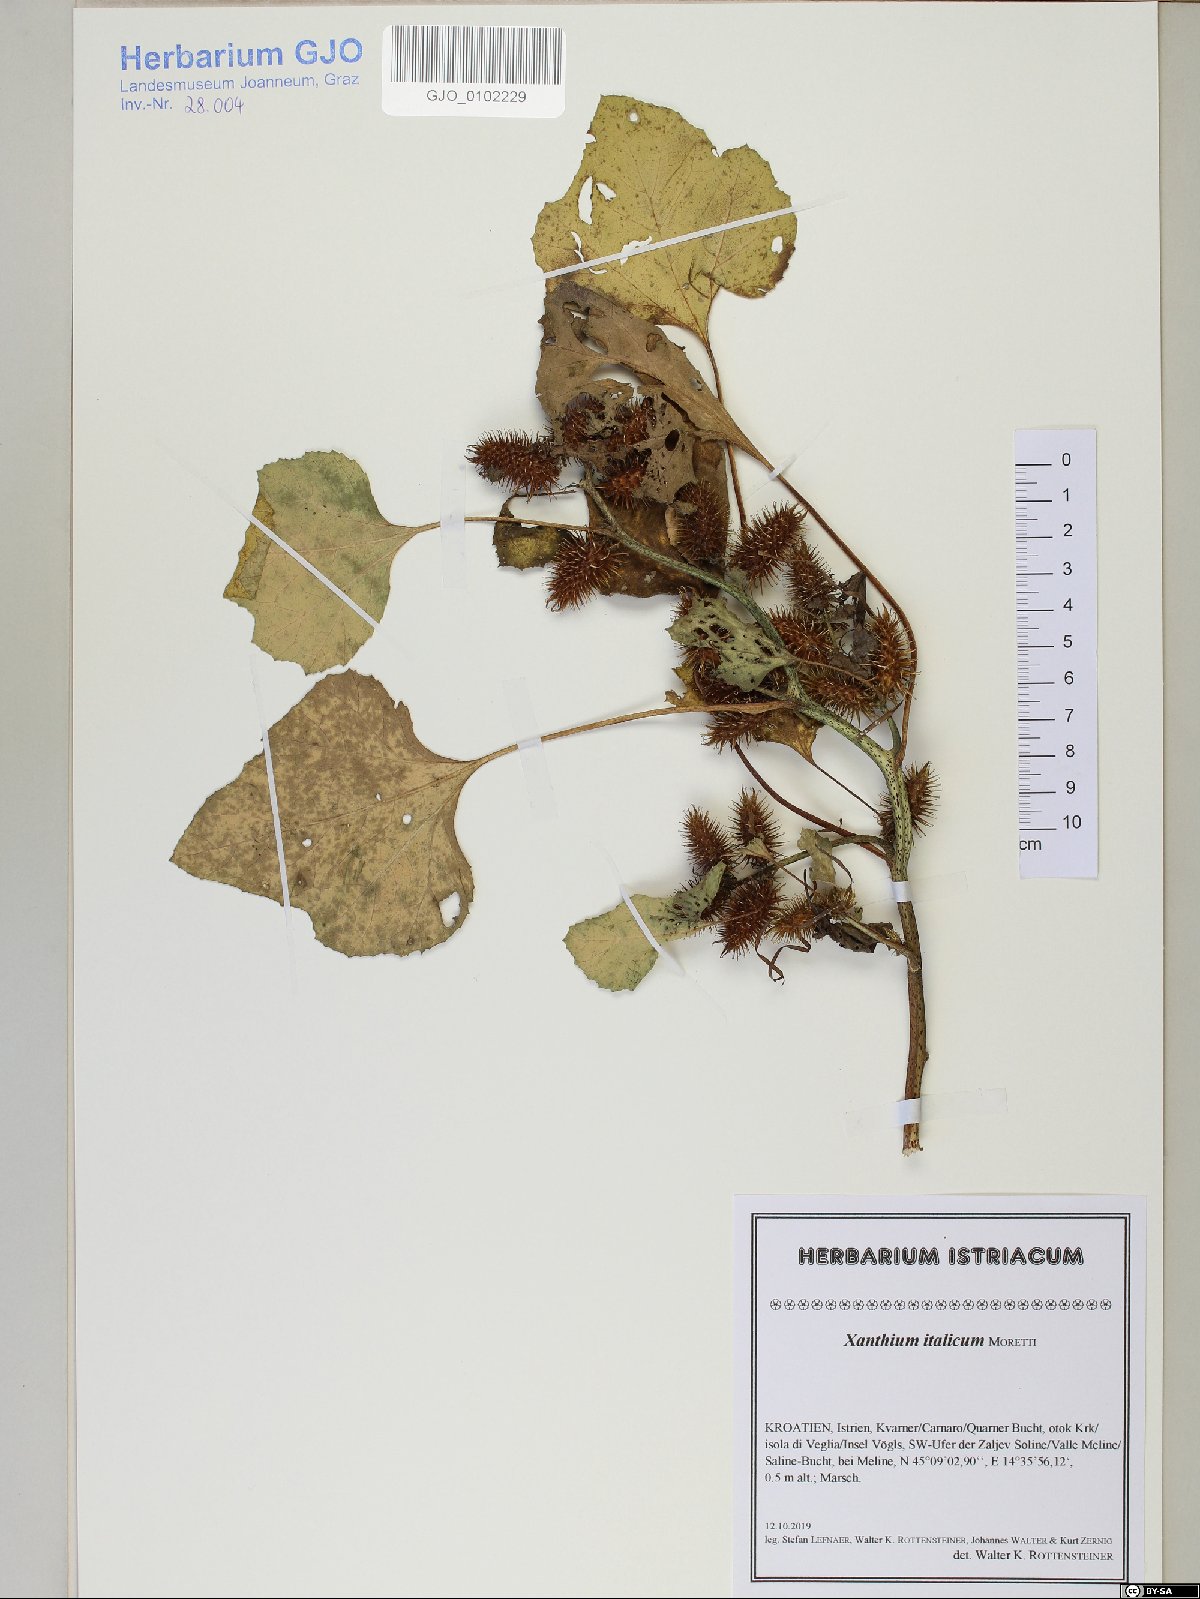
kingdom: Plantae
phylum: Tracheophyta
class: Magnoliopsida
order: Asterales
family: Asteraceae
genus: Xanthium
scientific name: Xanthium orientale
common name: Californian burr
